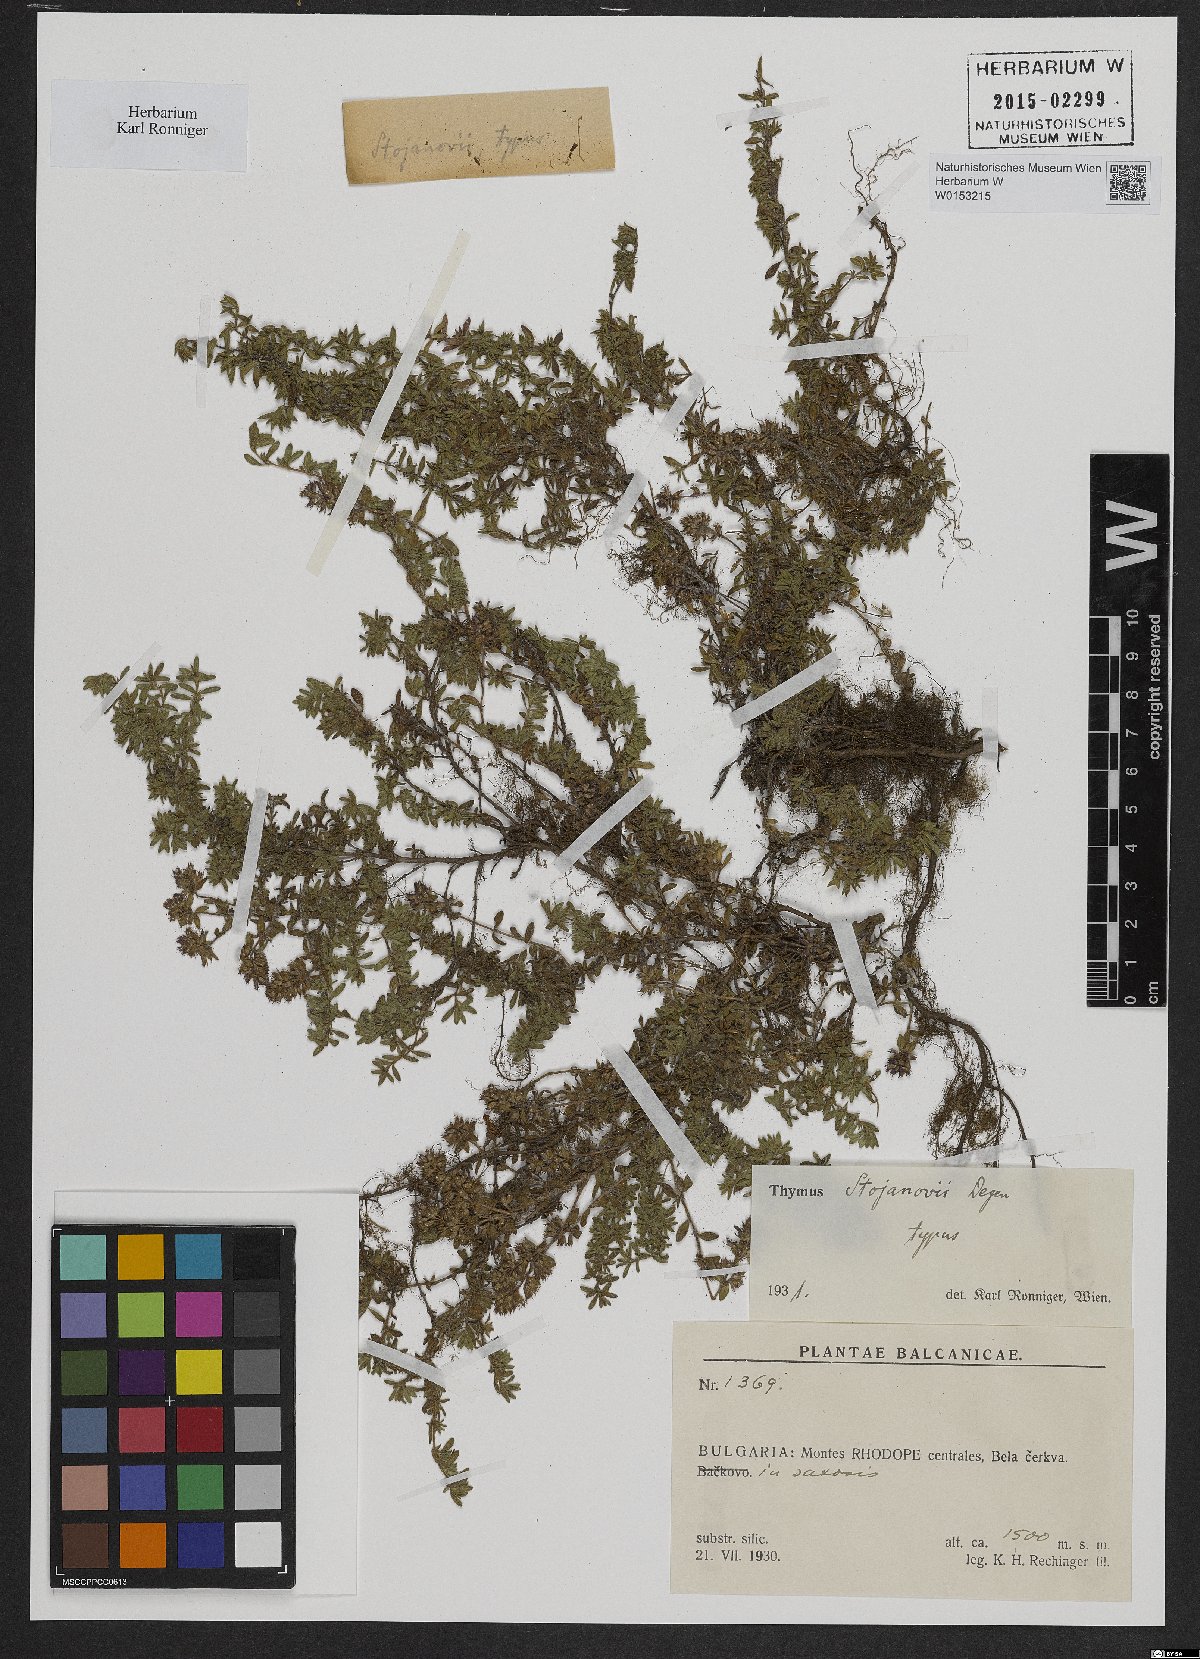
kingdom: Plantae
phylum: Tracheophyta
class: Magnoliopsida
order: Lamiales
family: Lamiaceae
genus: Thymus
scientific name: Thymus stojanovii
